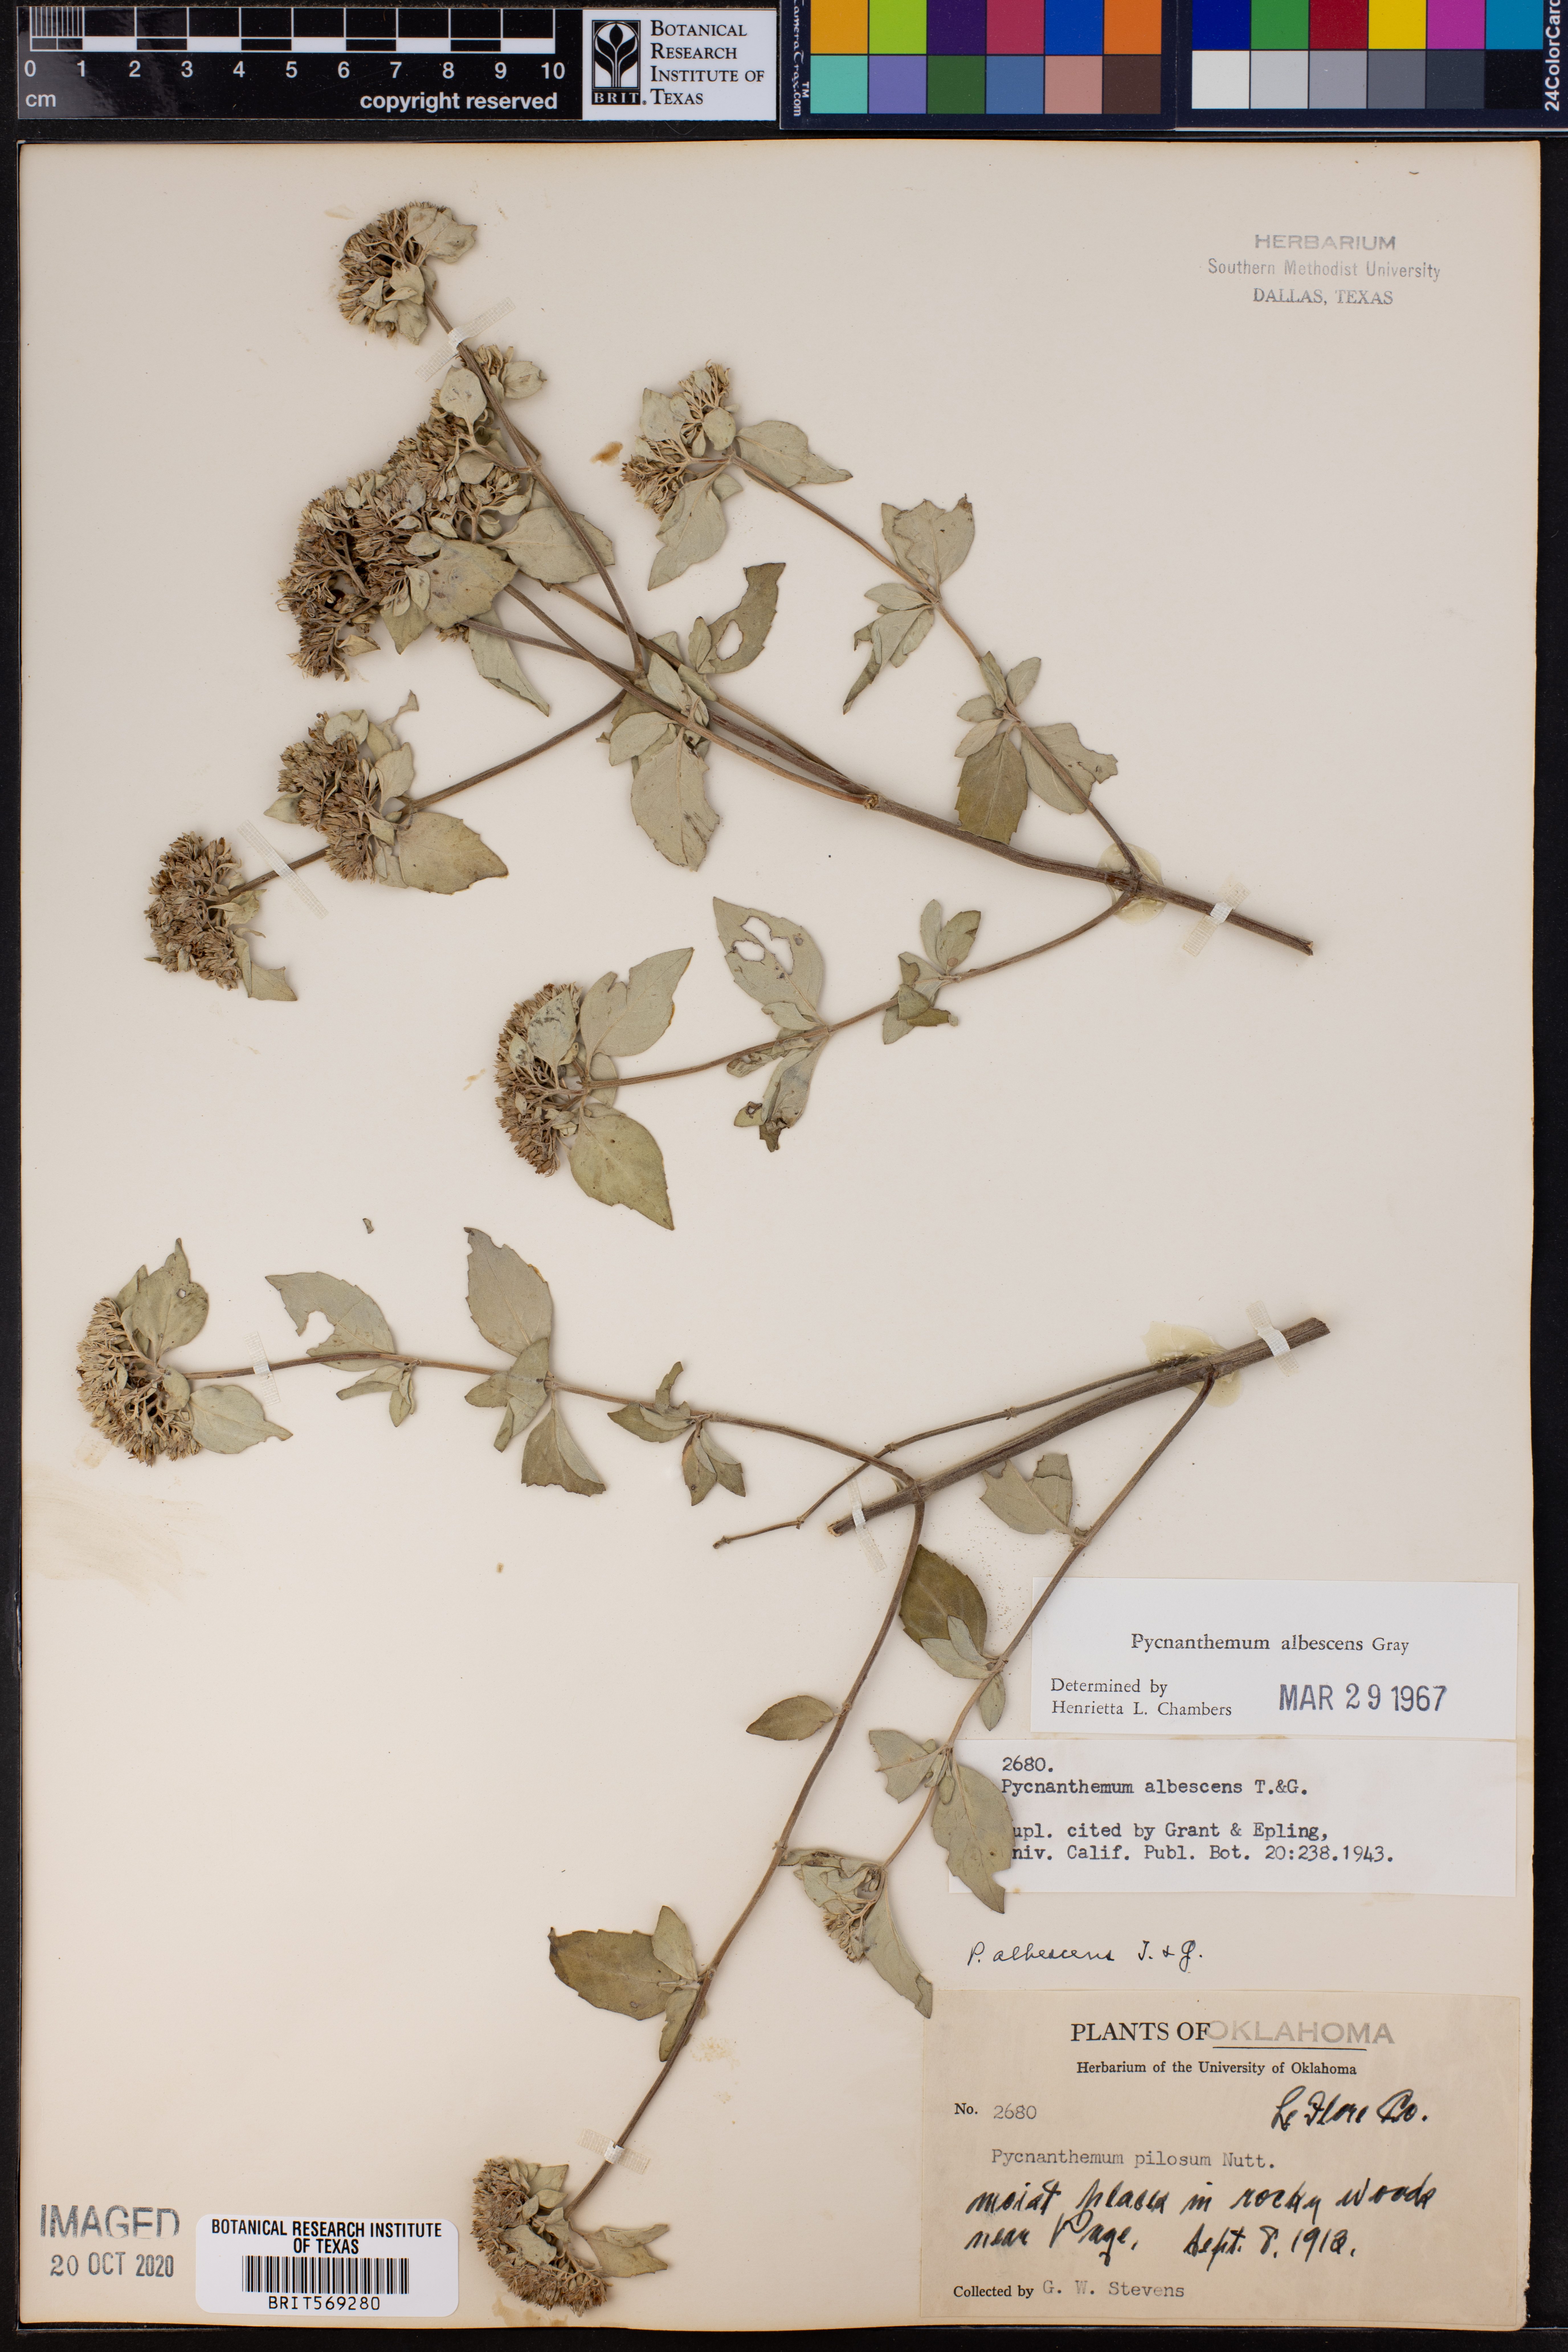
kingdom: Plantae
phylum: Tracheophyta
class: Magnoliopsida
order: Lamiales
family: Lamiaceae
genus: Pycnanthemum
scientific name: Pycnanthemum albescens
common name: White-leaf mountain-mint
